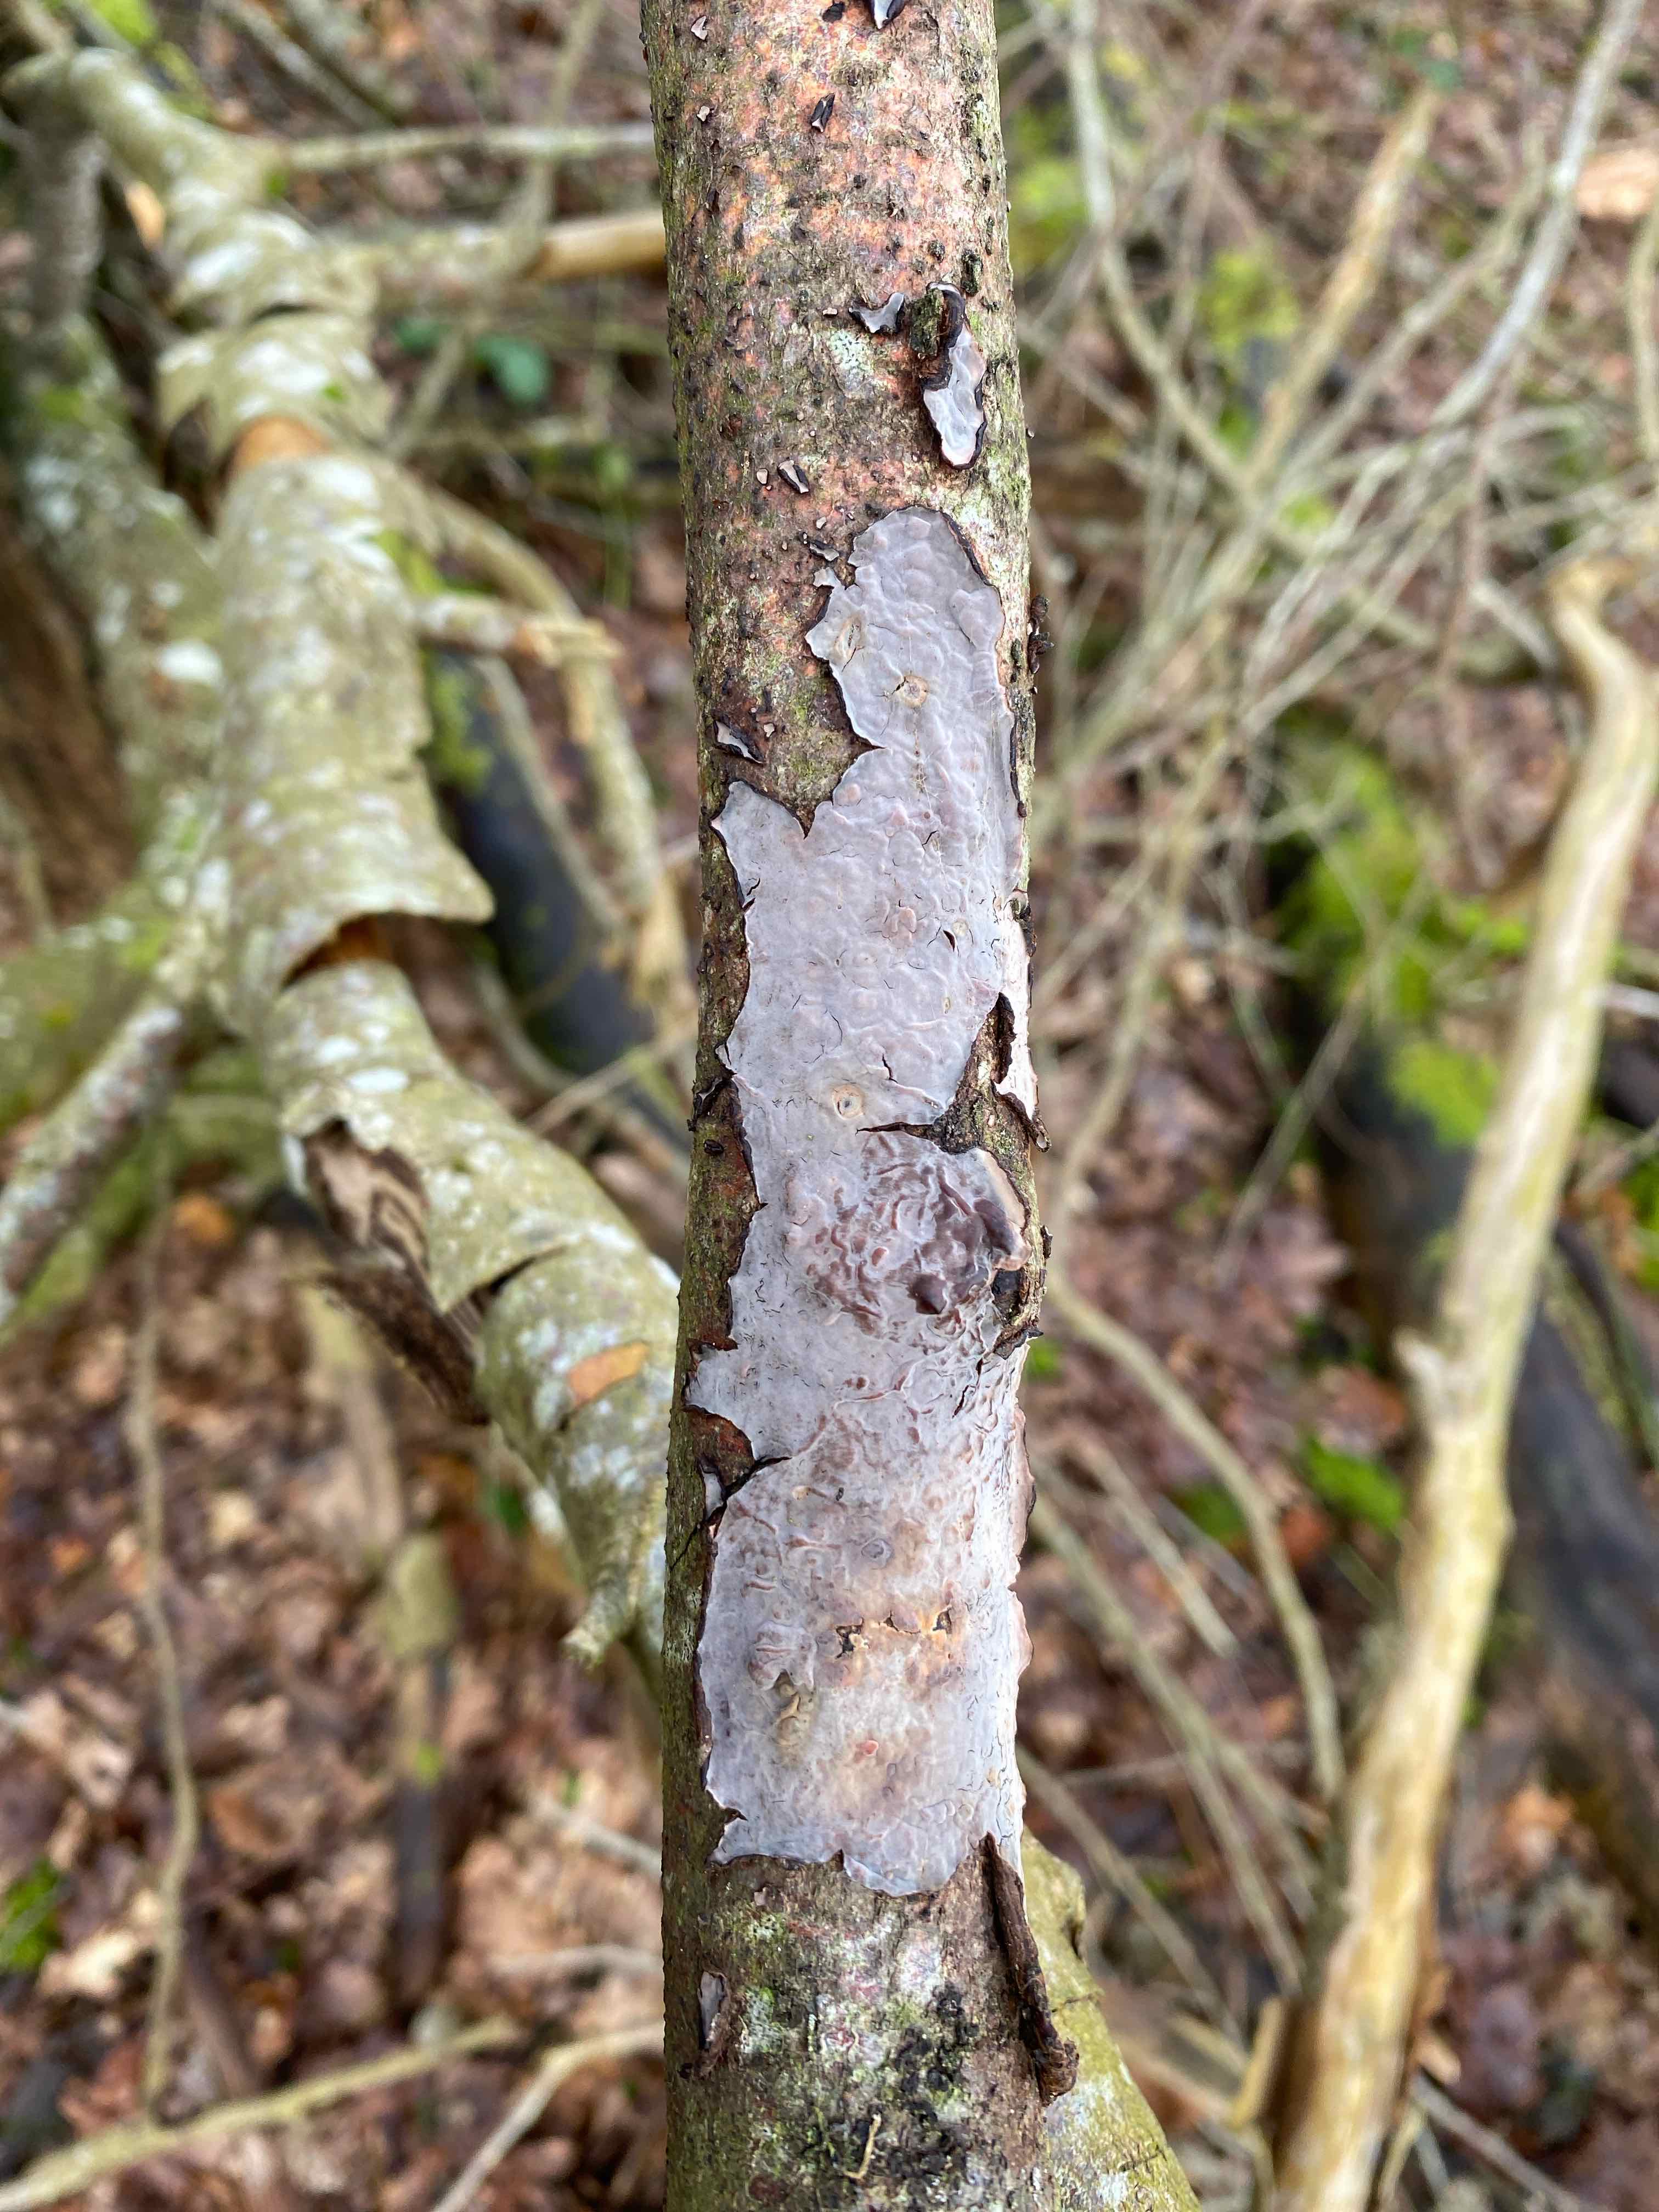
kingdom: Fungi
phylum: Basidiomycota
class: Agaricomycetes
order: Russulales
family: Peniophoraceae
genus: Peniophora
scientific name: Peniophora quercina
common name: ege-voksskind
